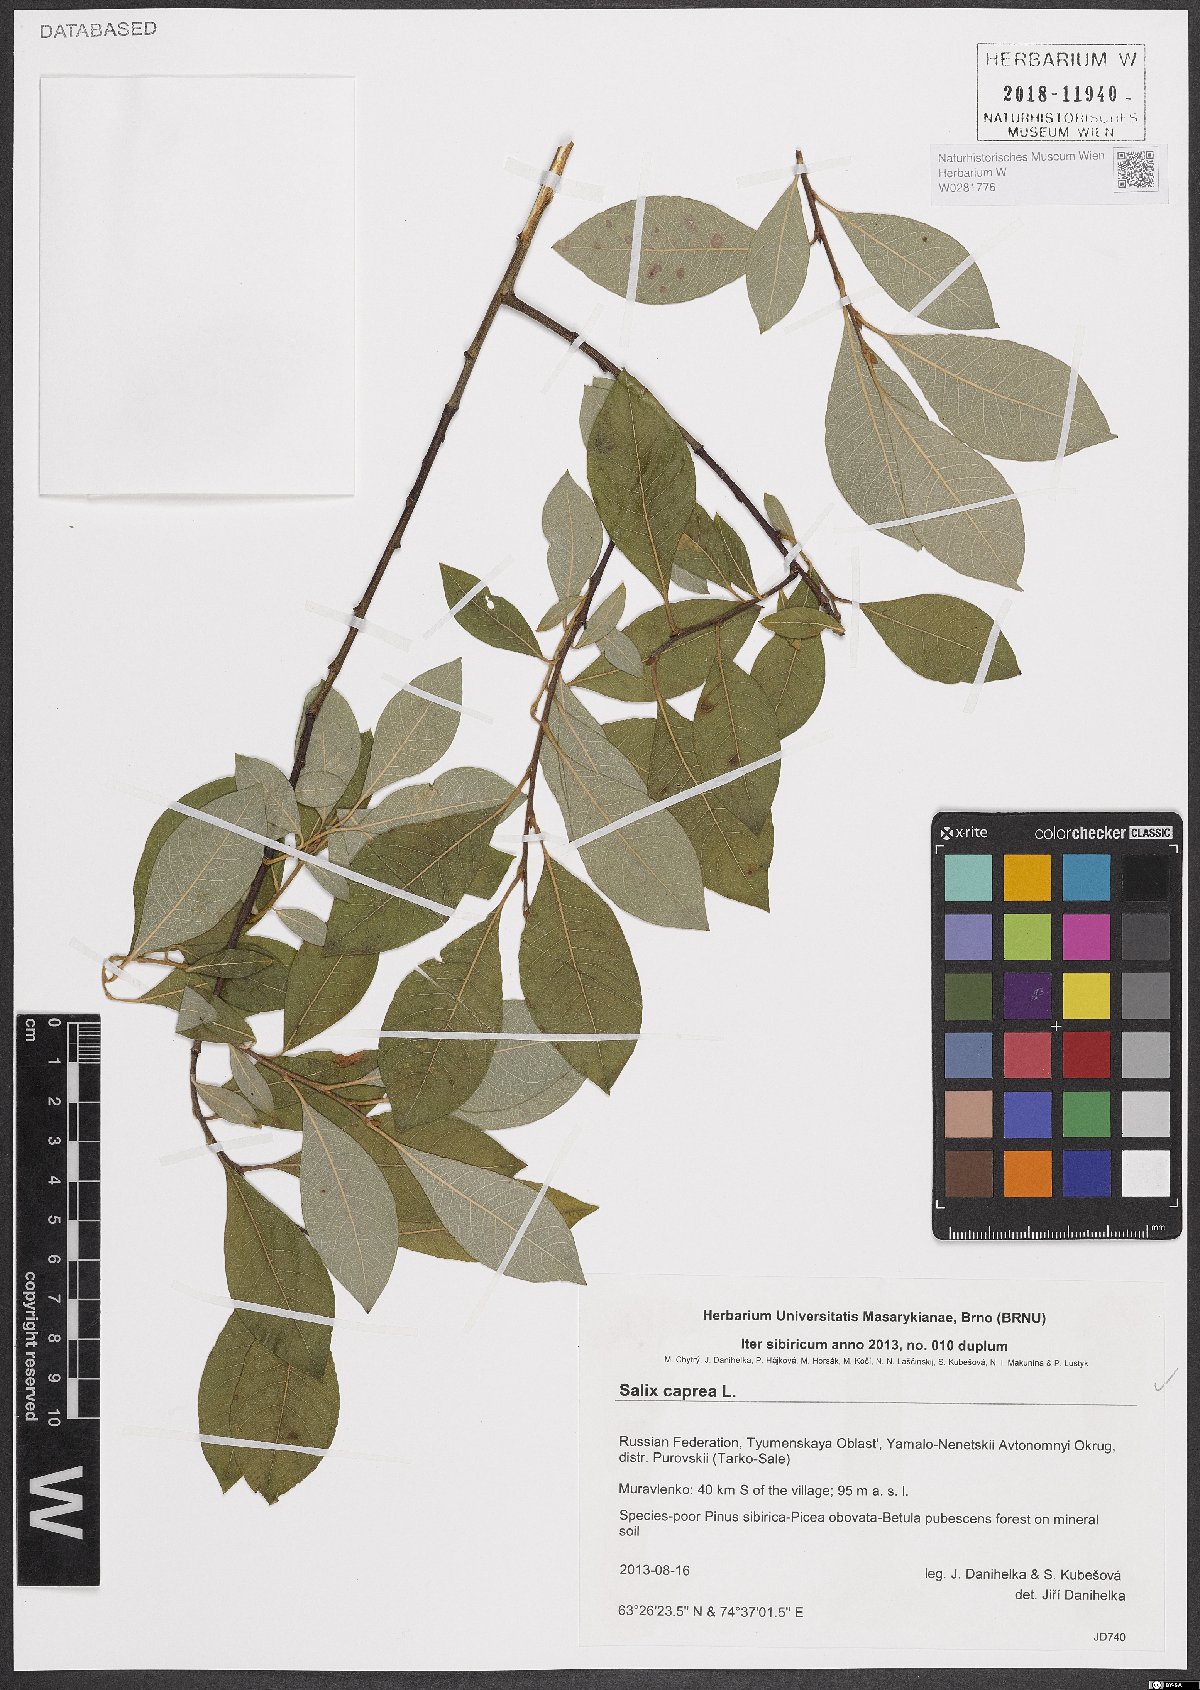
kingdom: Plantae
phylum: Tracheophyta
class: Magnoliopsida
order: Malpighiales
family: Salicaceae
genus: Salix
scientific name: Salix caprea
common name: Goat willow
